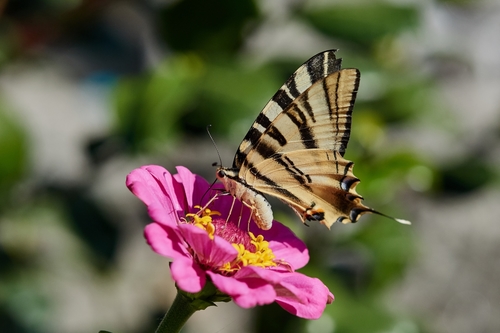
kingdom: Animalia
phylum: Arthropoda
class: Insecta
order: Lepidoptera
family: Papilionidae
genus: Iphiclides
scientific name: Iphiclides feisthamelii
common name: Iberian scarce swallowtail
